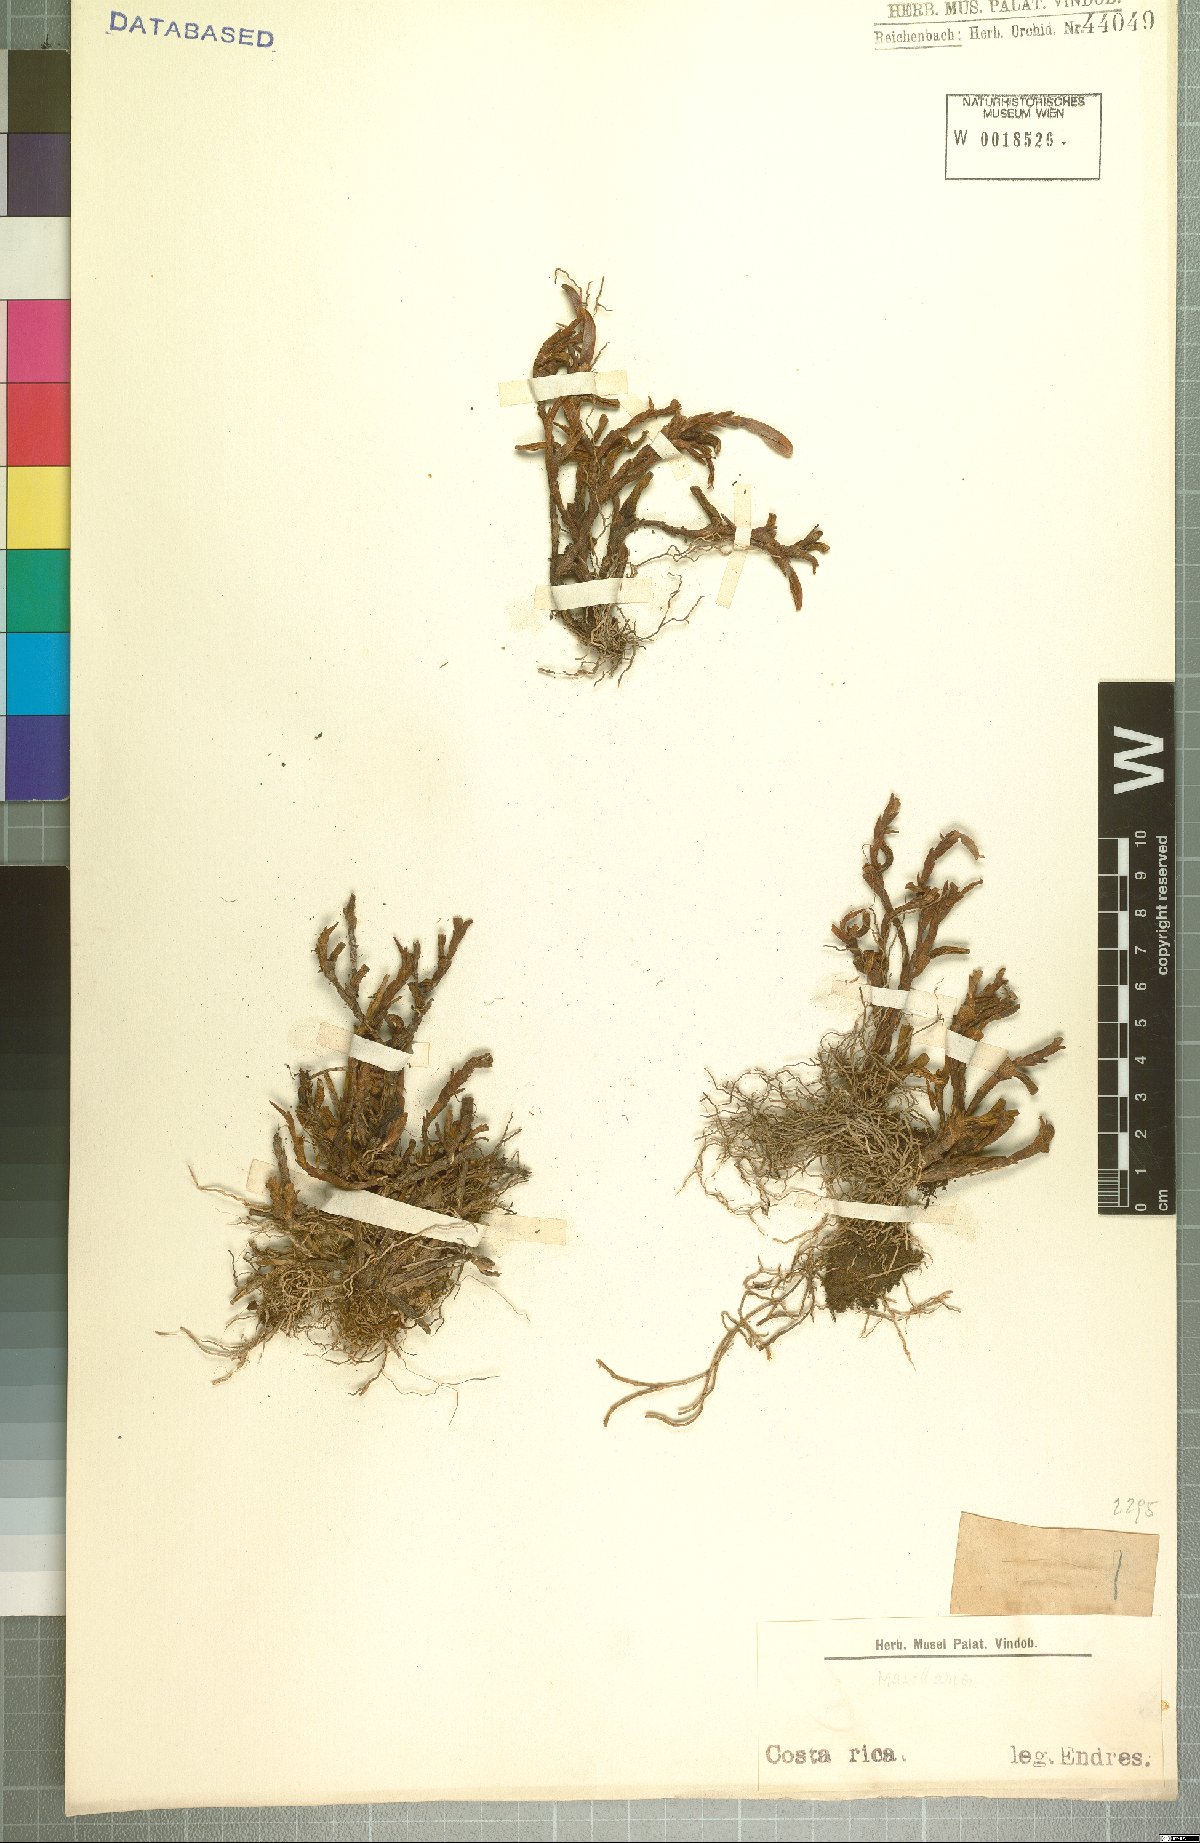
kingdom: Plantae
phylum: Tracheophyta
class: Liliopsida
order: Asparagales
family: Orchidaceae
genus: Maxillaria
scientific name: Maxillaria
